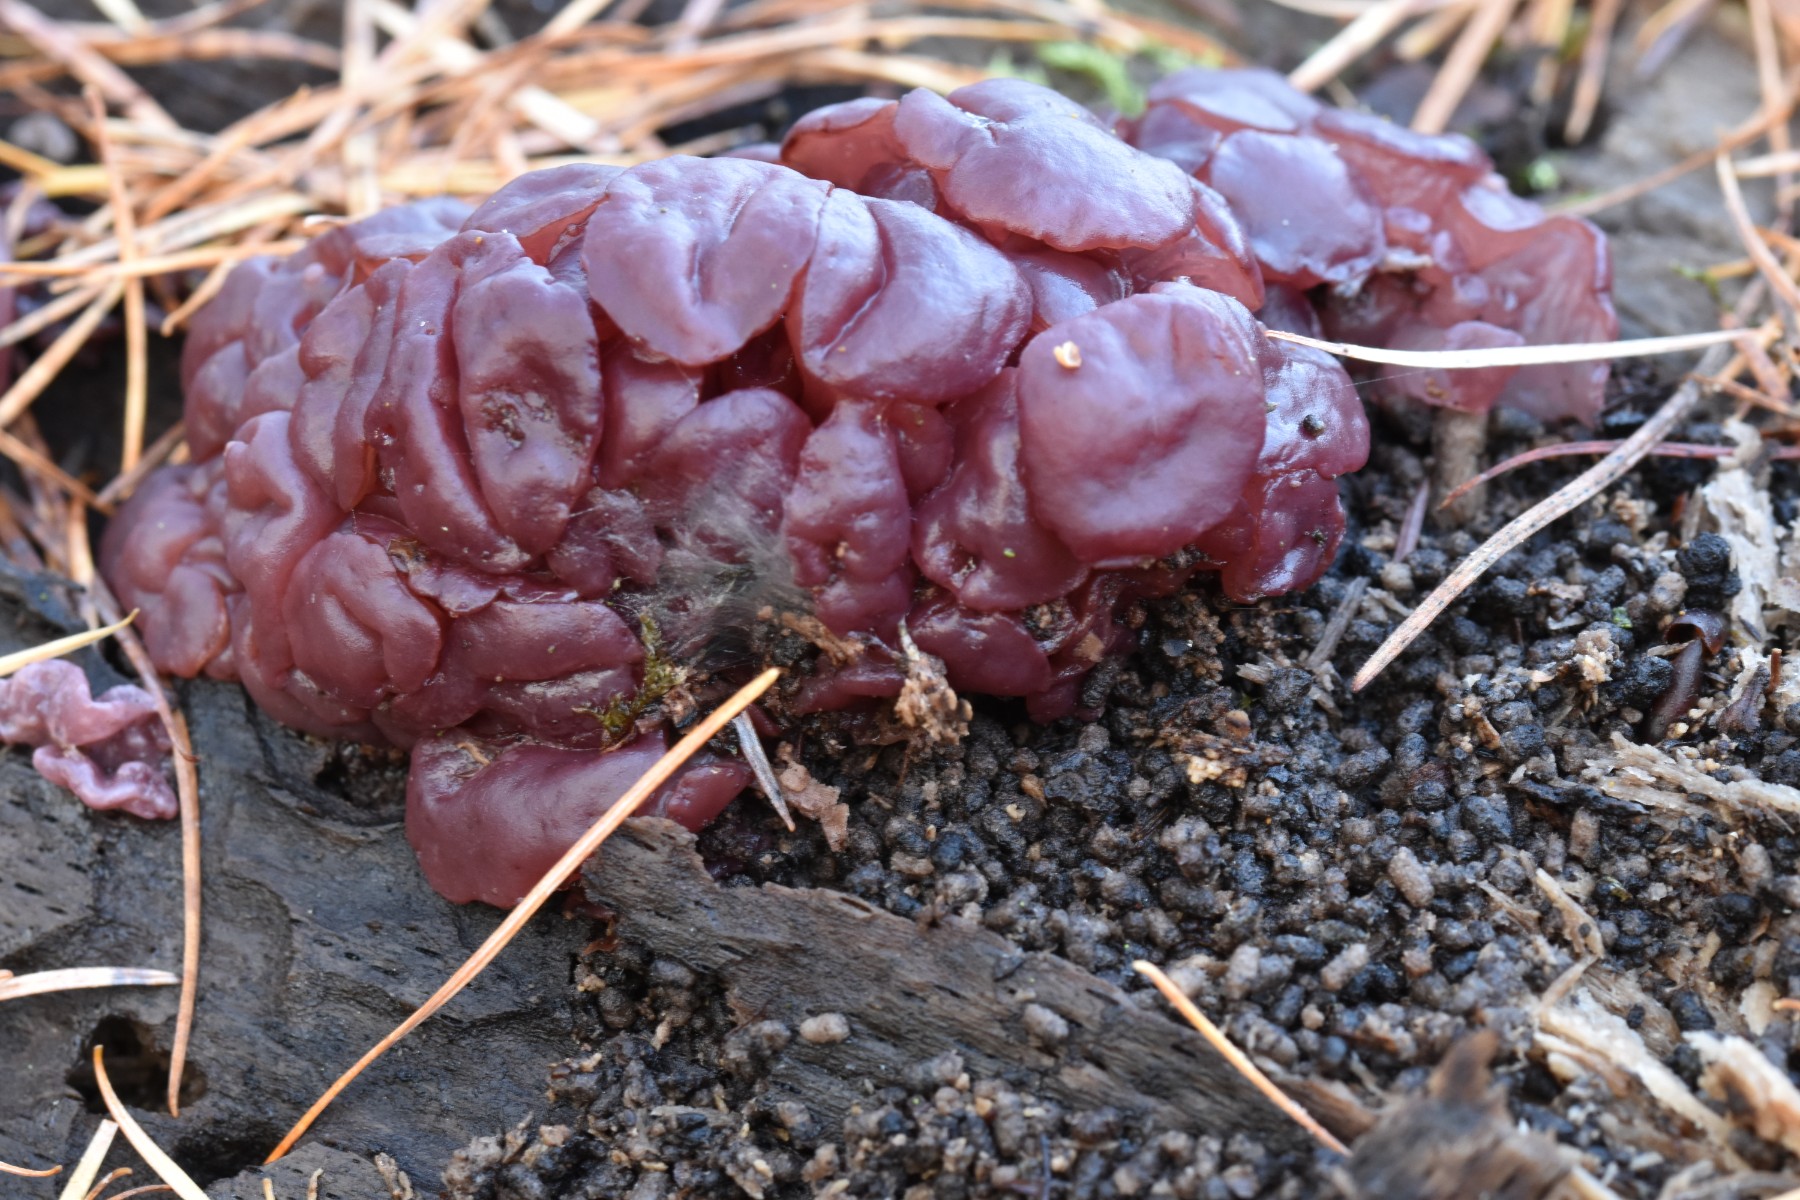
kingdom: Fungi
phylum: Ascomycota
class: Leotiomycetes
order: Helotiales
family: Gelatinodiscaceae
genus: Ascocoryne
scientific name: Ascocoryne sarcoides
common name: rødlilla sejskive
